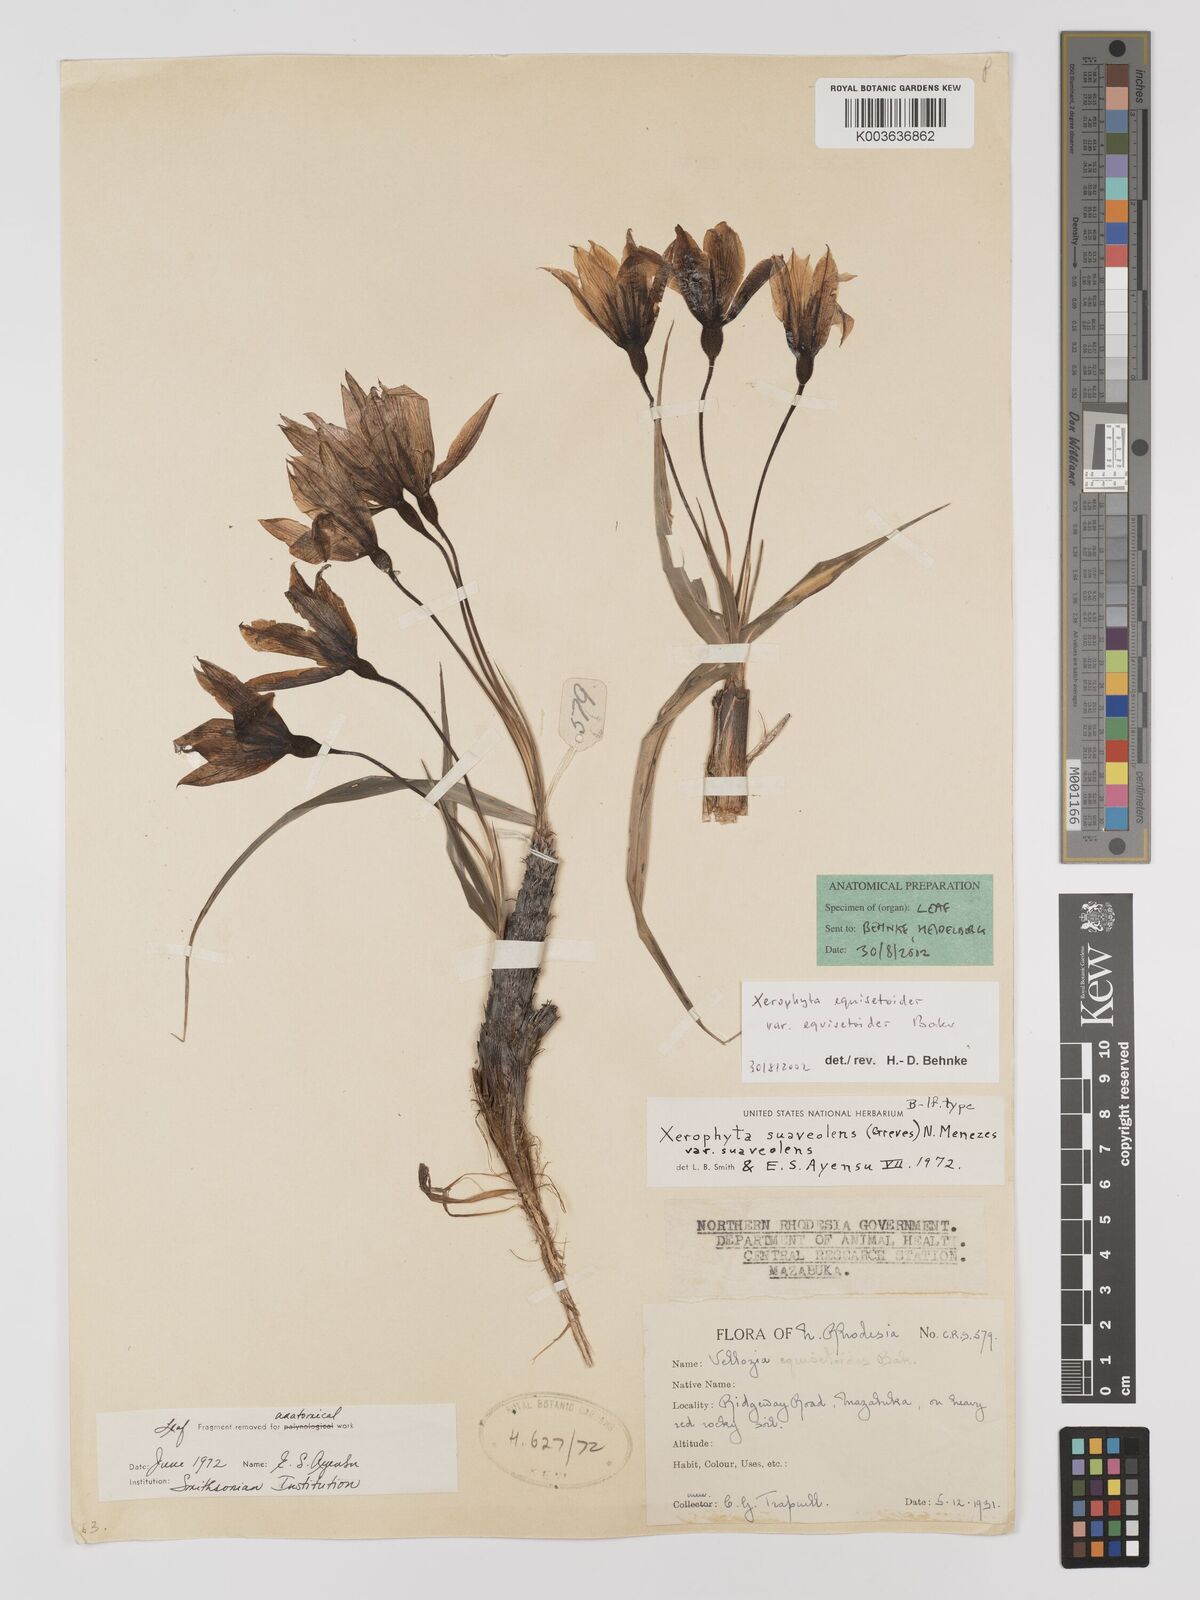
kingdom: Plantae
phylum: Tracheophyta
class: Liliopsida
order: Pandanales
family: Velloziaceae
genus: Xerophyta
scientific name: Xerophyta equisetoides
